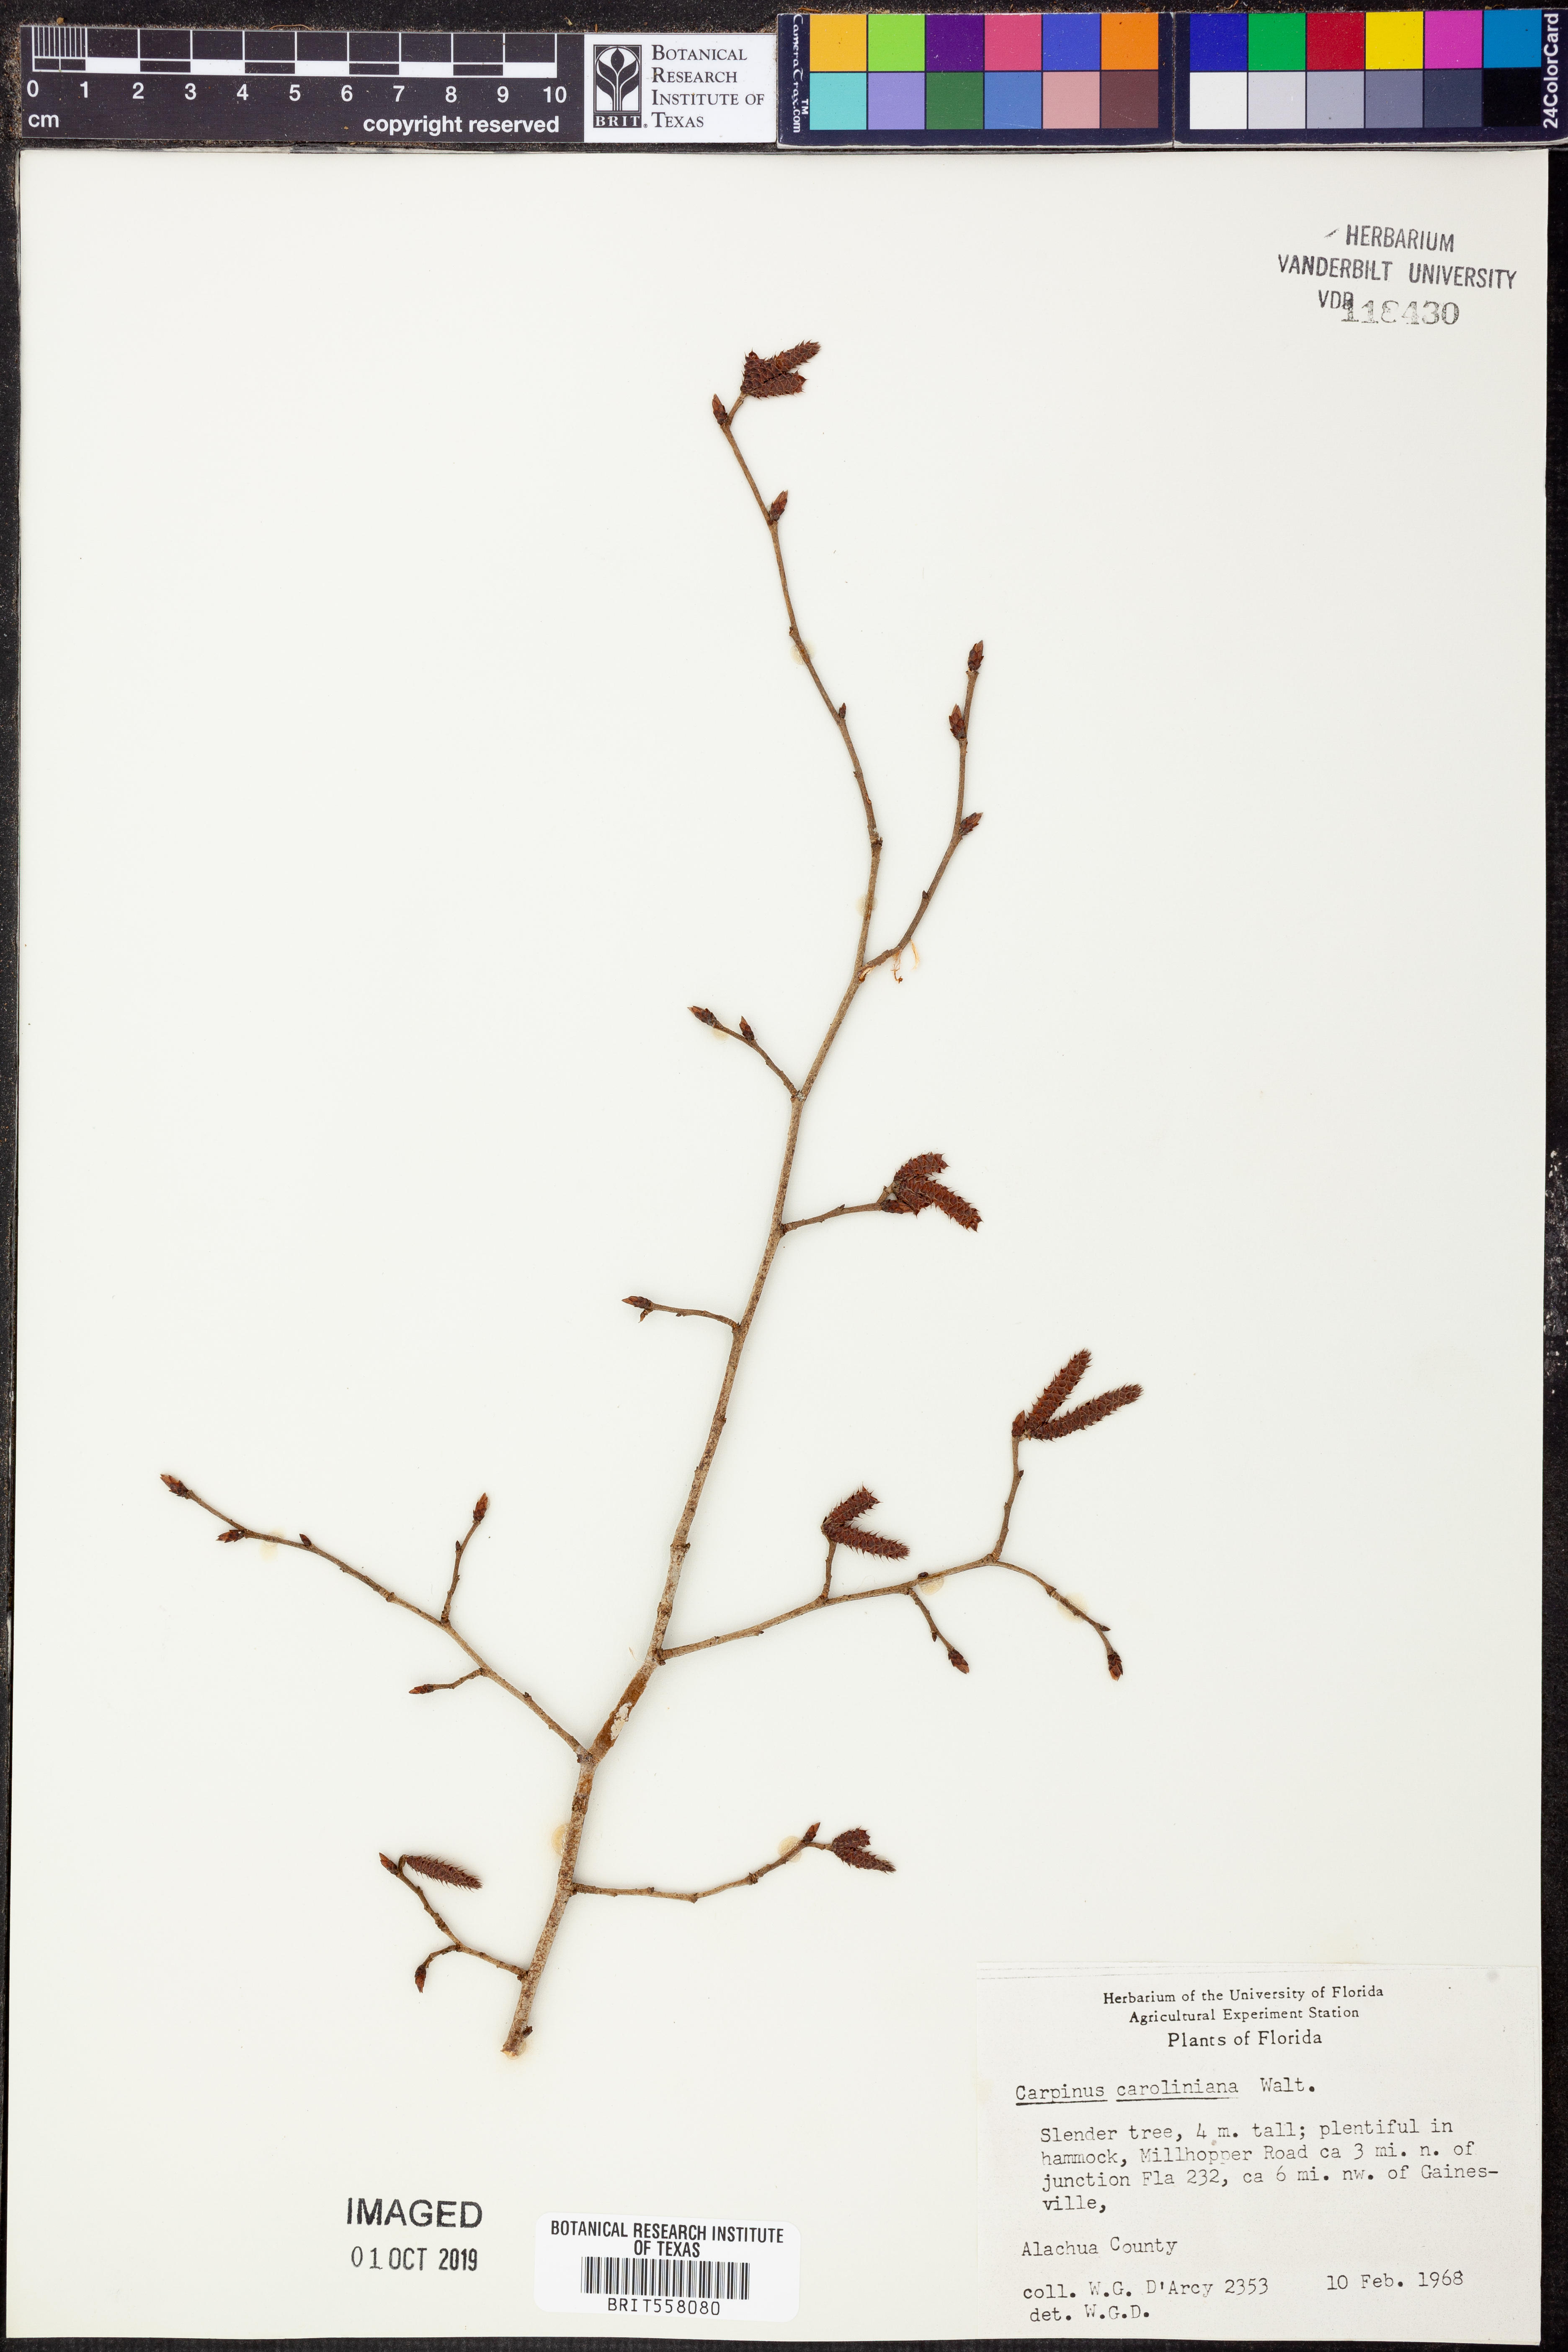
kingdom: Plantae
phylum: Tracheophyta
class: Magnoliopsida
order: Fagales
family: Betulaceae
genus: Carpinus
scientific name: Carpinus caroliniana
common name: American hornbeam
